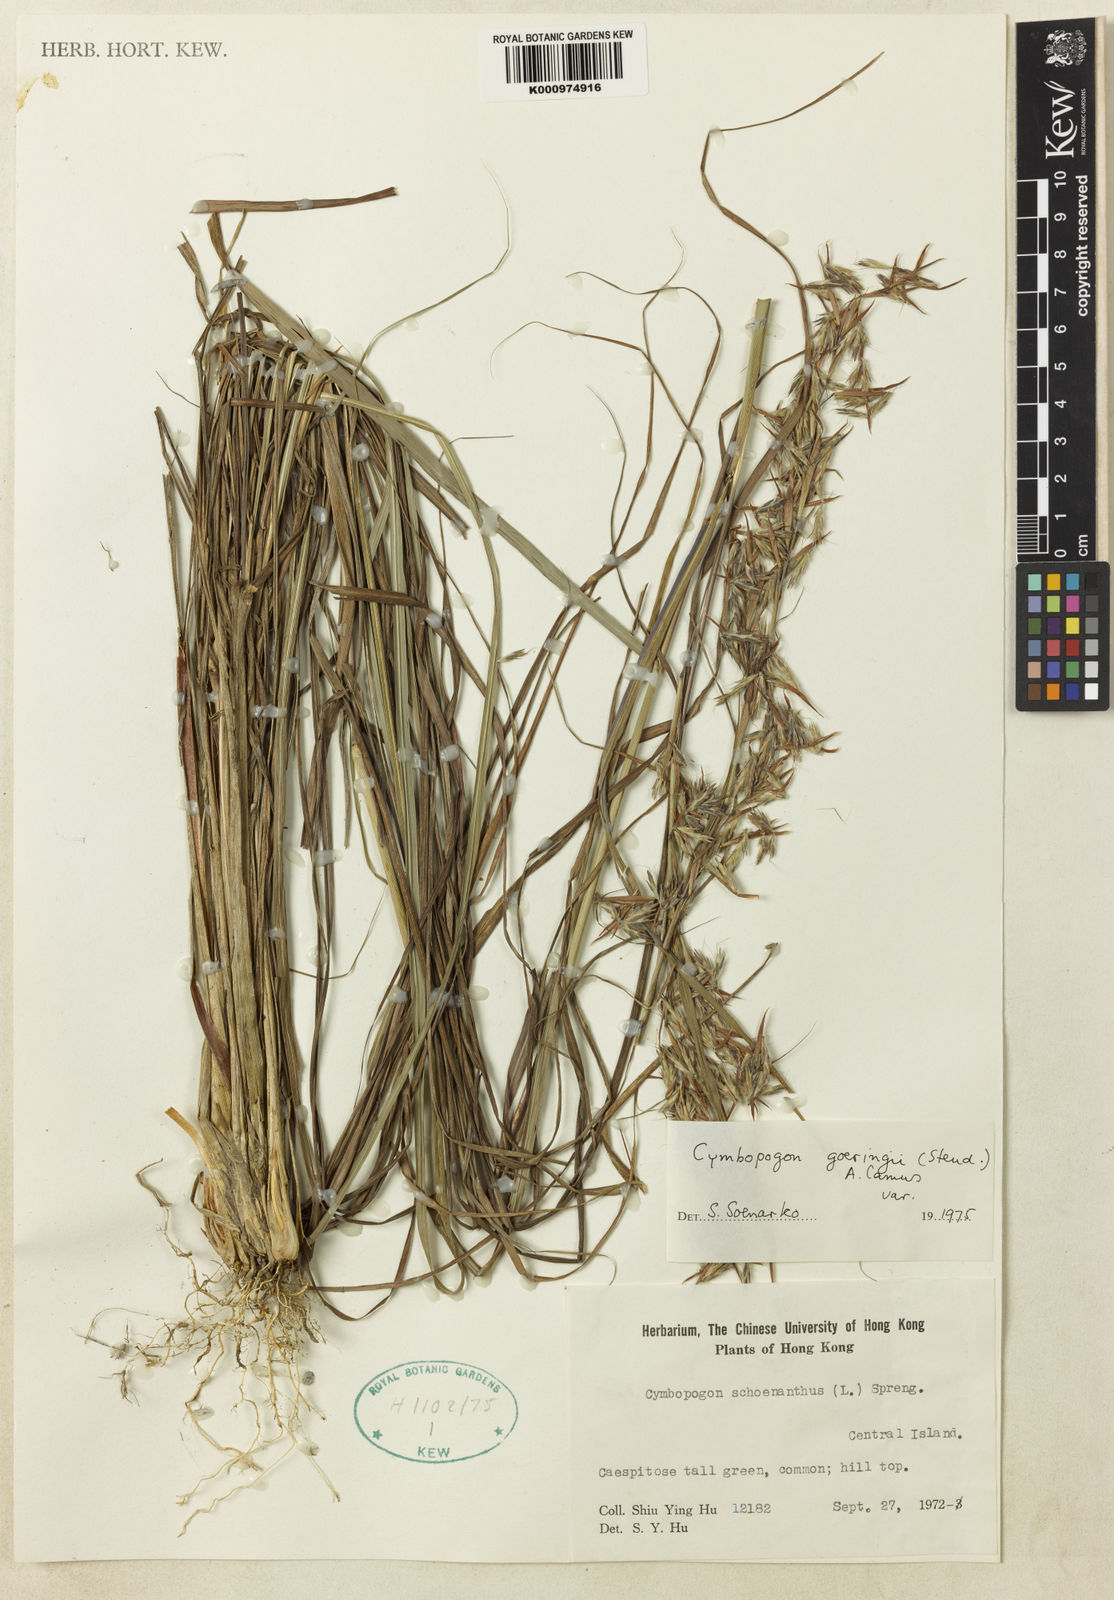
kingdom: Plantae
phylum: Tracheophyta
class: Liliopsida
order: Poales
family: Poaceae
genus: Cymbopogon
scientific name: Cymbopogon goeringii
